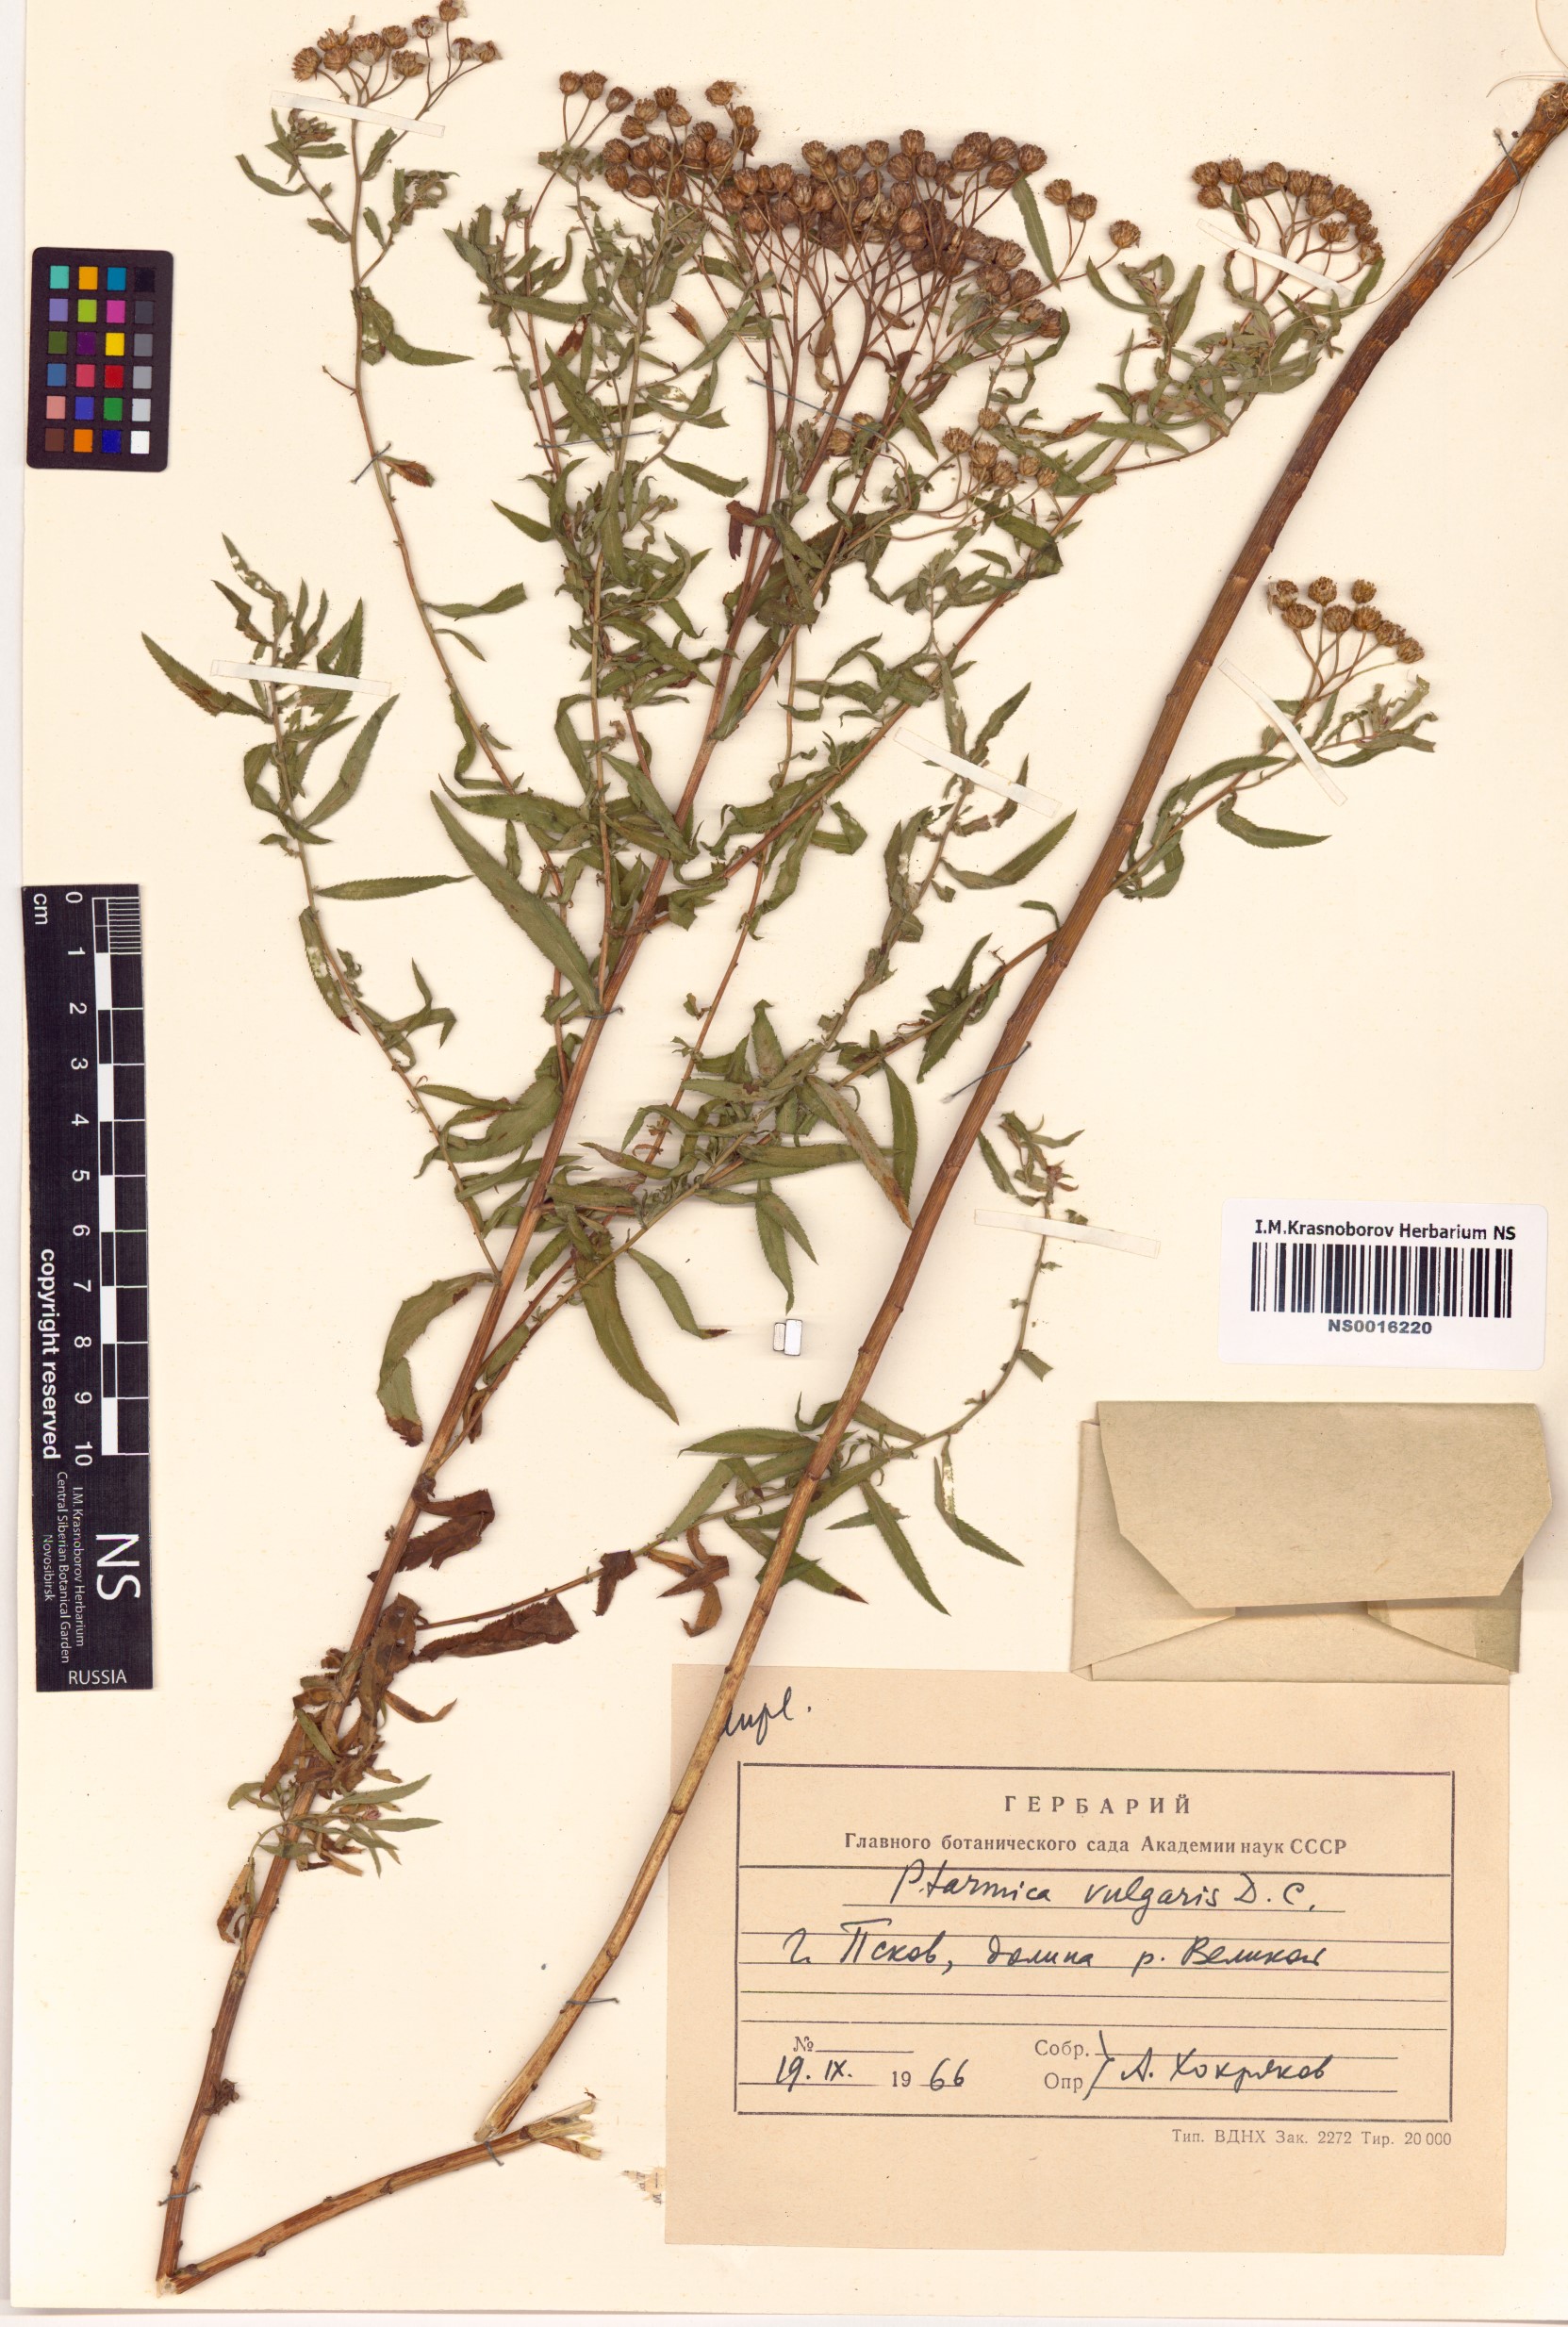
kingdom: Plantae
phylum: Tracheophyta
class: Magnoliopsida
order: Asterales
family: Asteraceae
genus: Achillea
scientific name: Achillea ptarmica
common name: Sneezeweed
